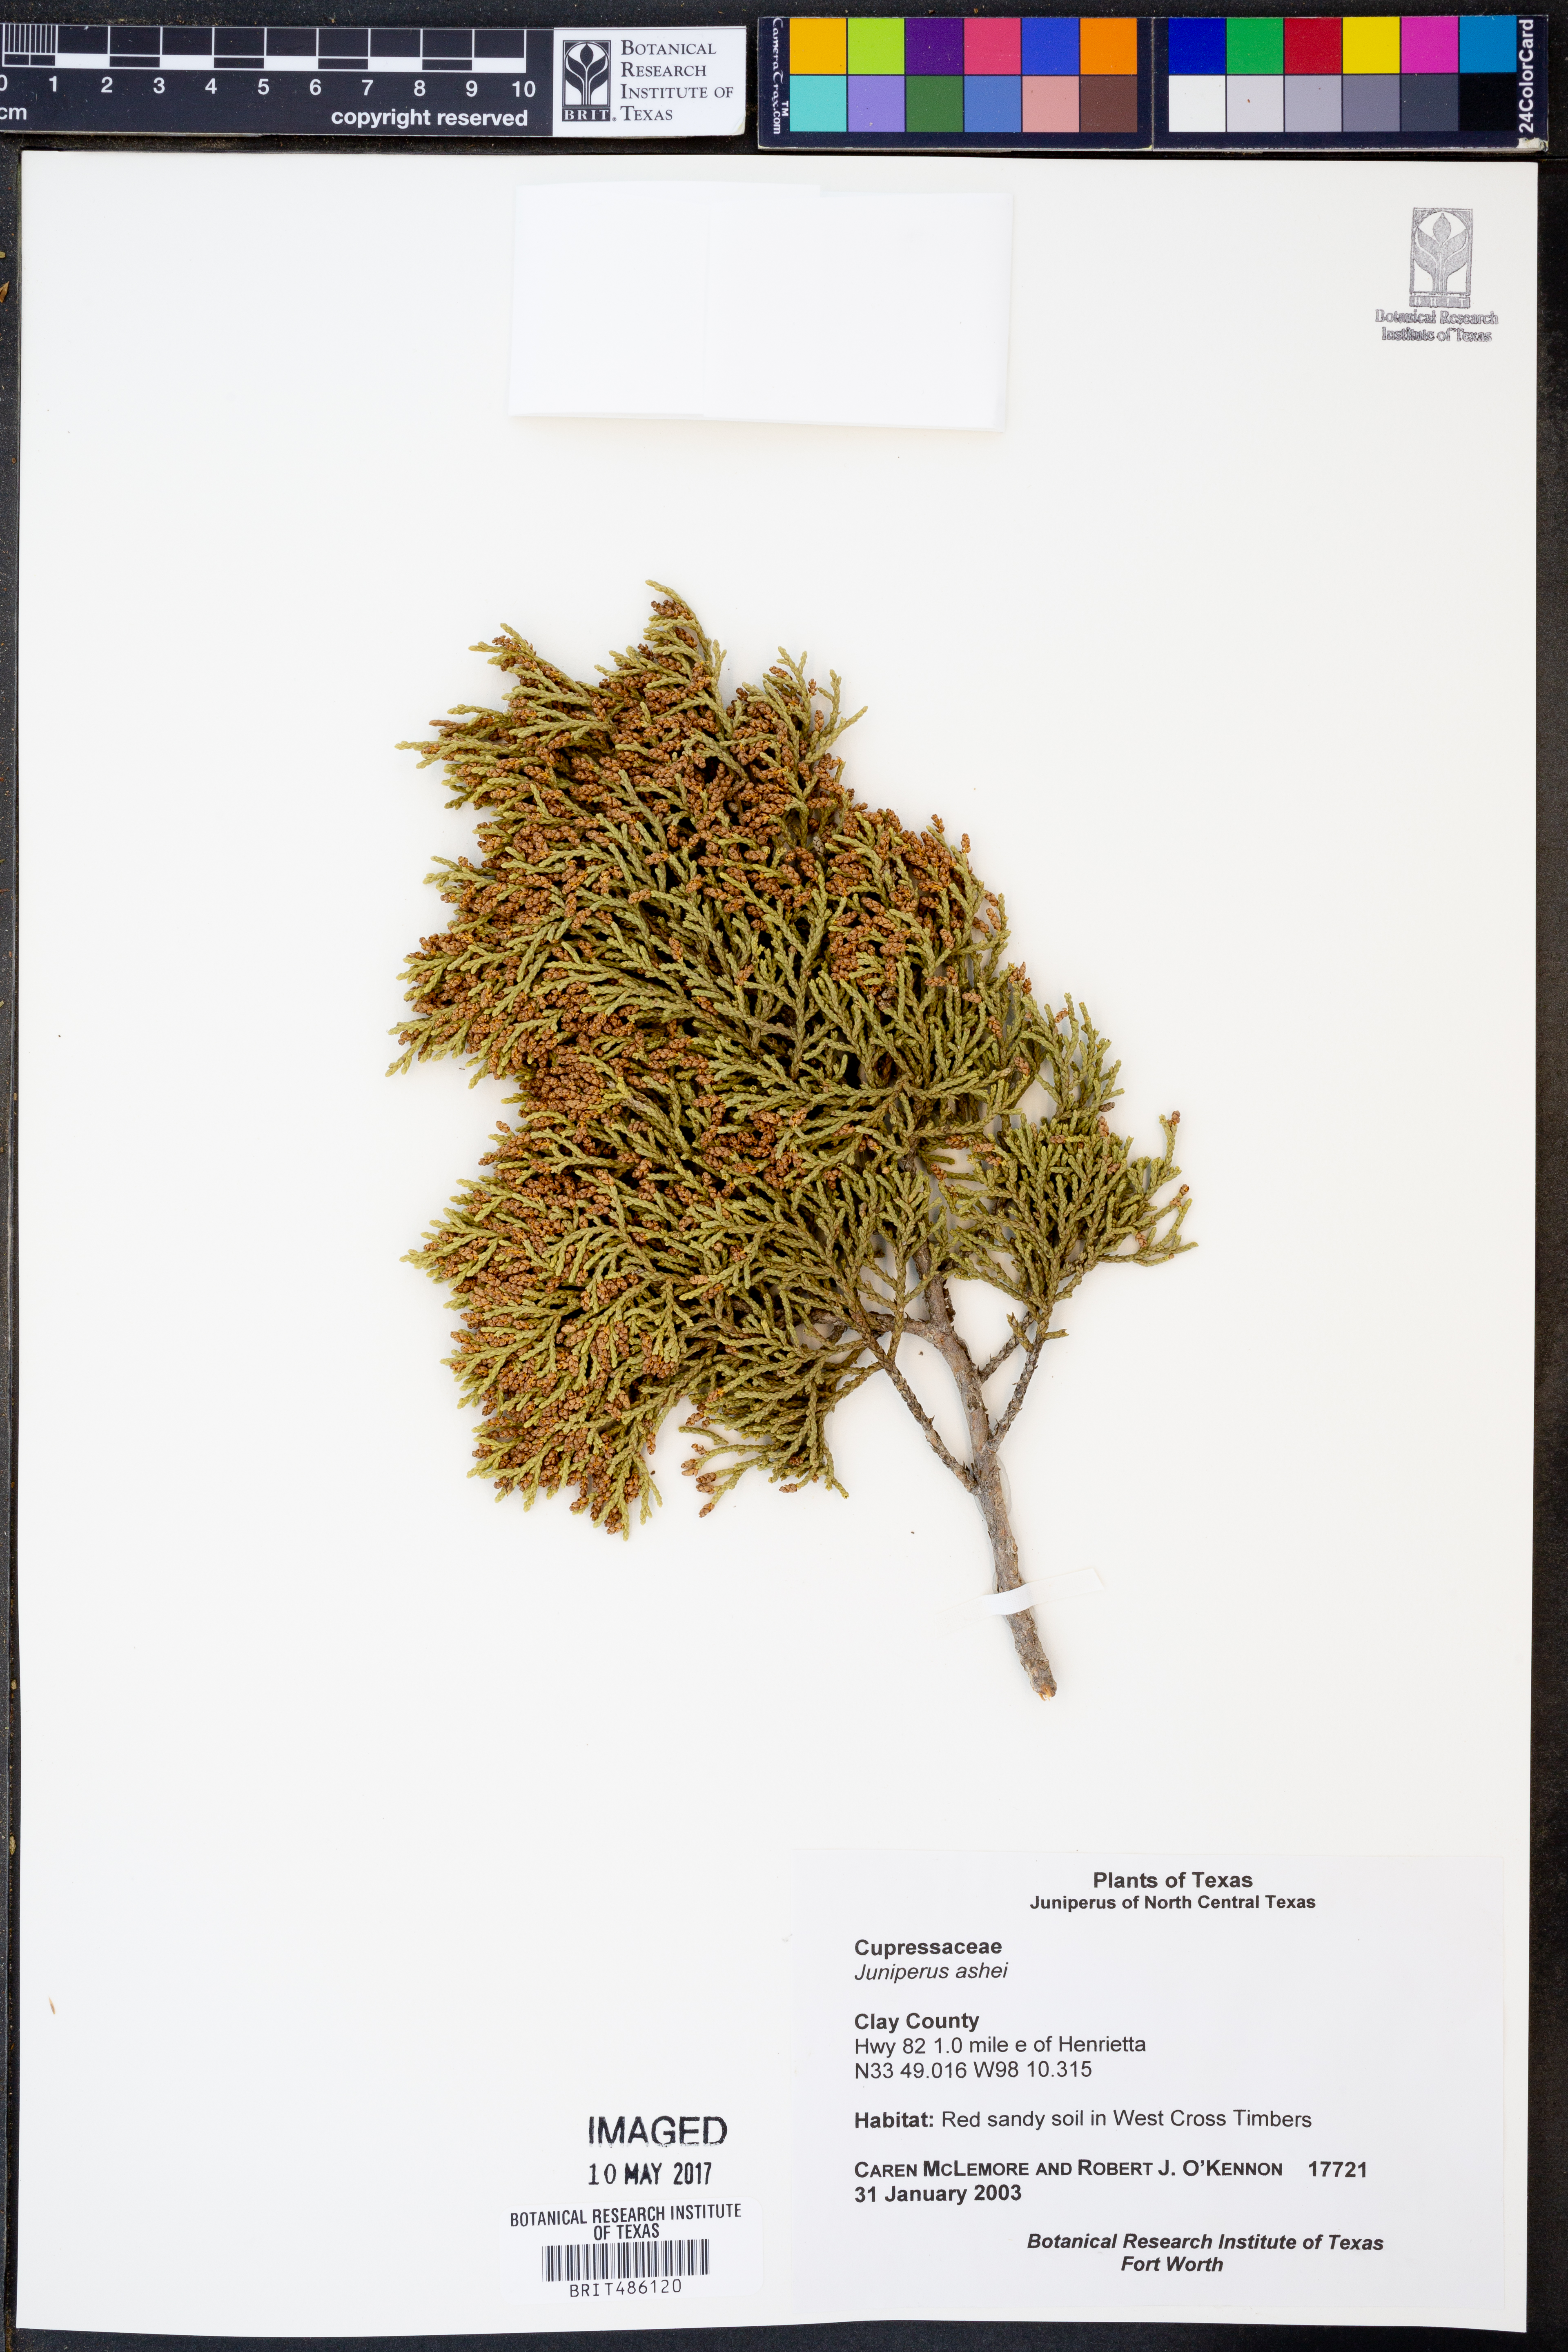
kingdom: Plantae
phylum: Tracheophyta
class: Pinopsida
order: Pinales
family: Cupressaceae
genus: Juniperus
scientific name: Juniperus ashei
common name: Mexican juniper
